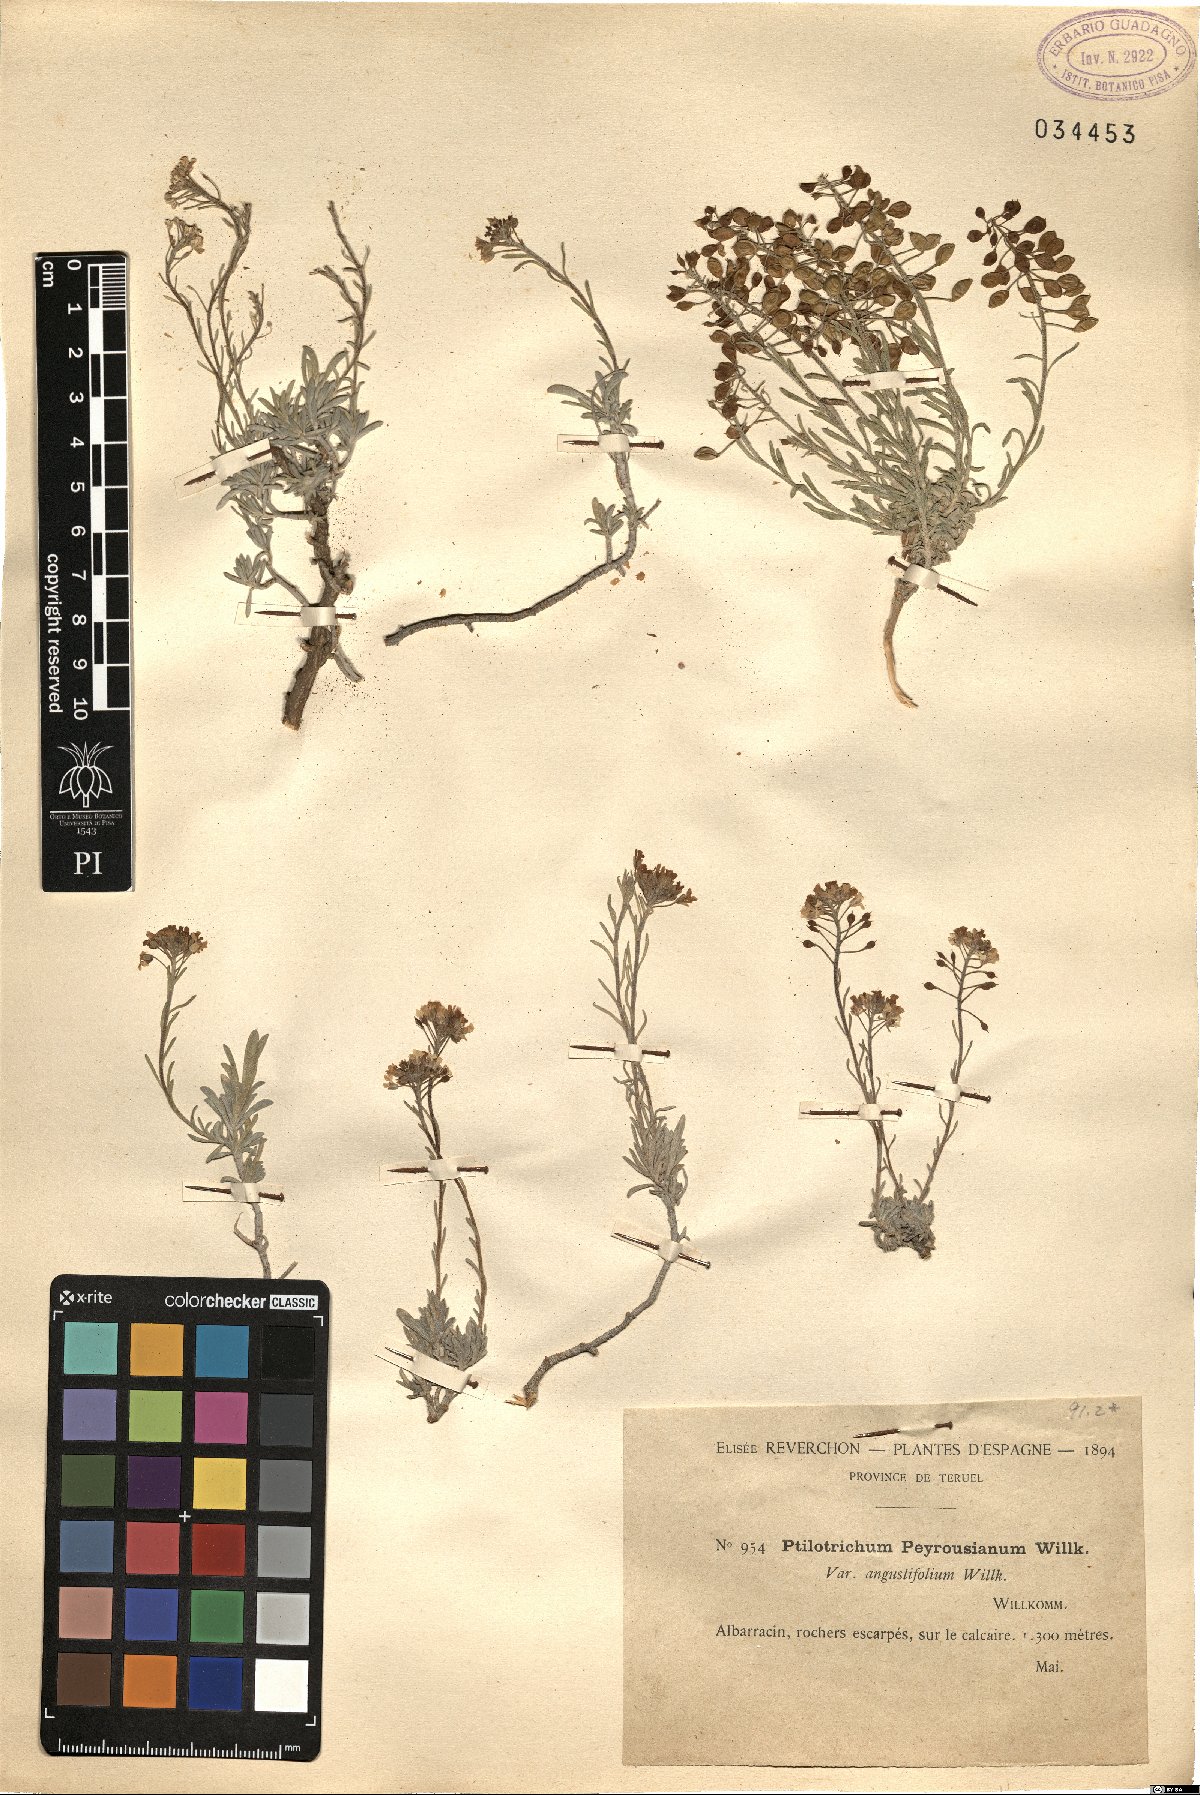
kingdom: Plantae
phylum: Tracheophyta
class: Magnoliopsida
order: Brassicales
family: Brassicaceae
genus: Hormathophylla
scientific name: Hormathophylla lapeyrousiana
